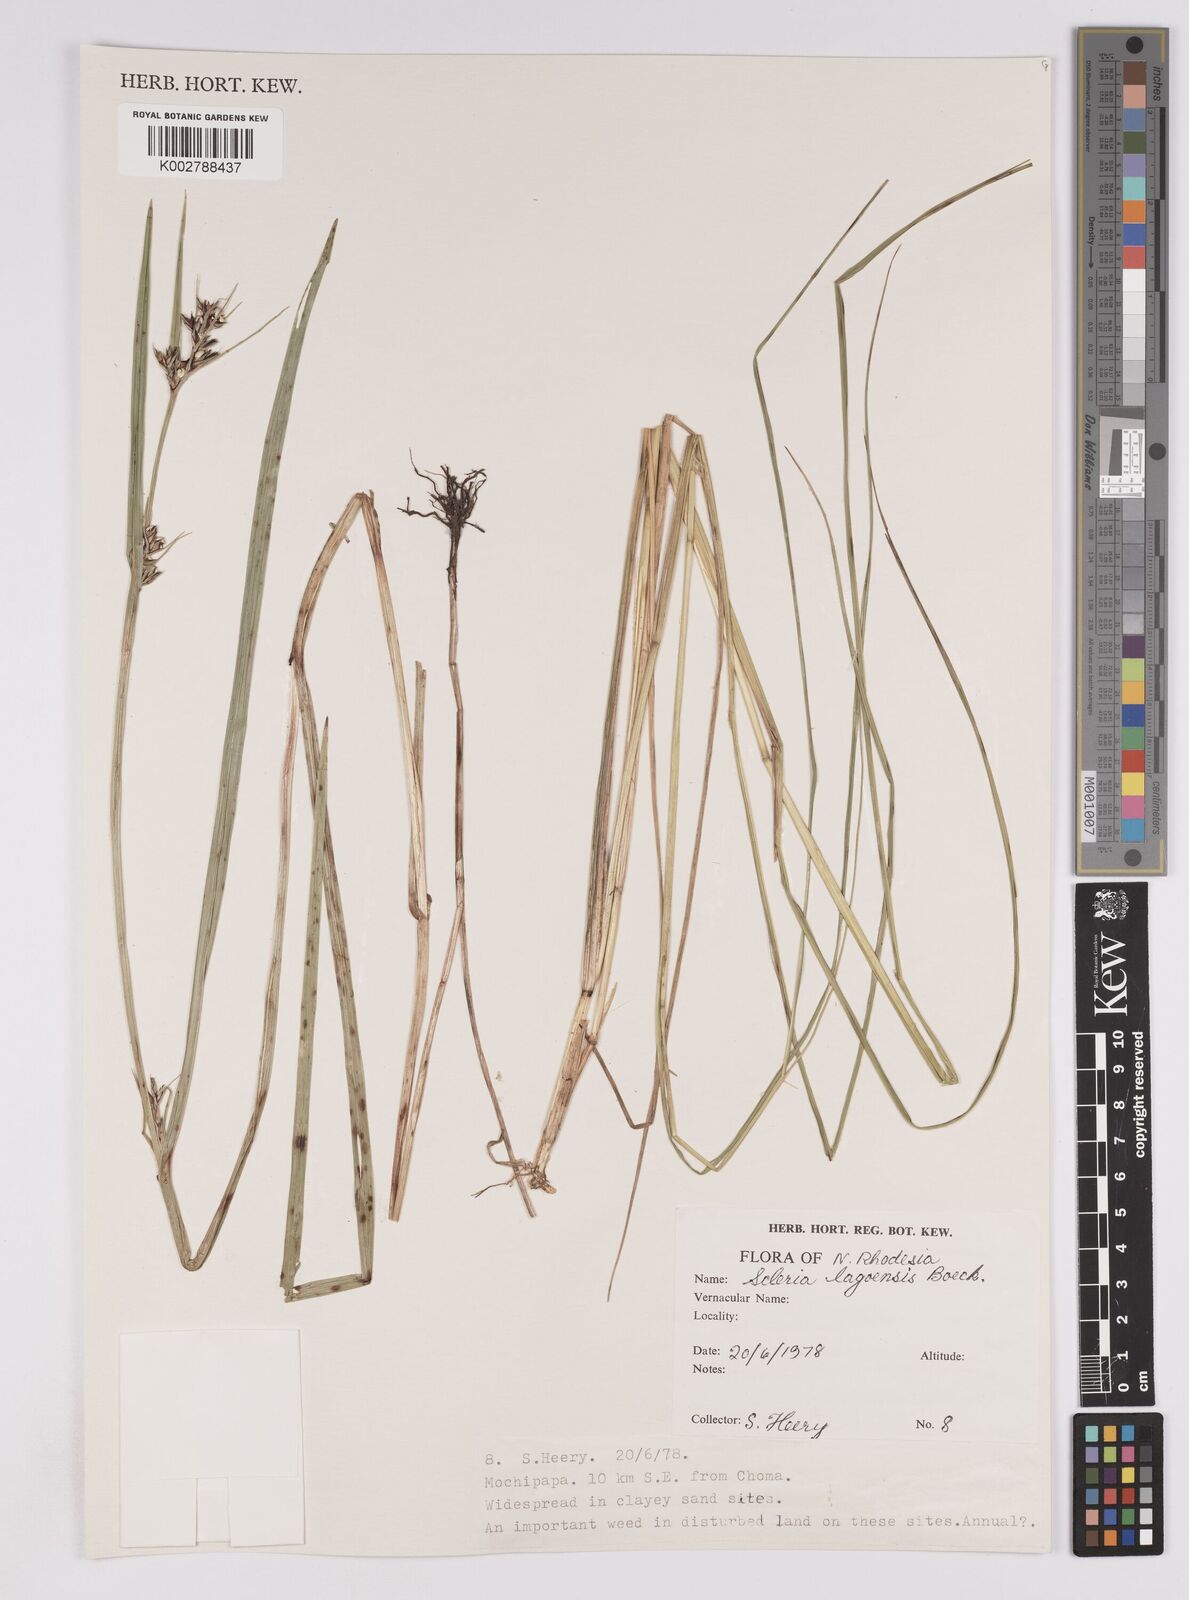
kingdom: Plantae
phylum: Tracheophyta
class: Liliopsida
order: Poales
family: Cyperaceae
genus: Scleria
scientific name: Scleria lagoensis
